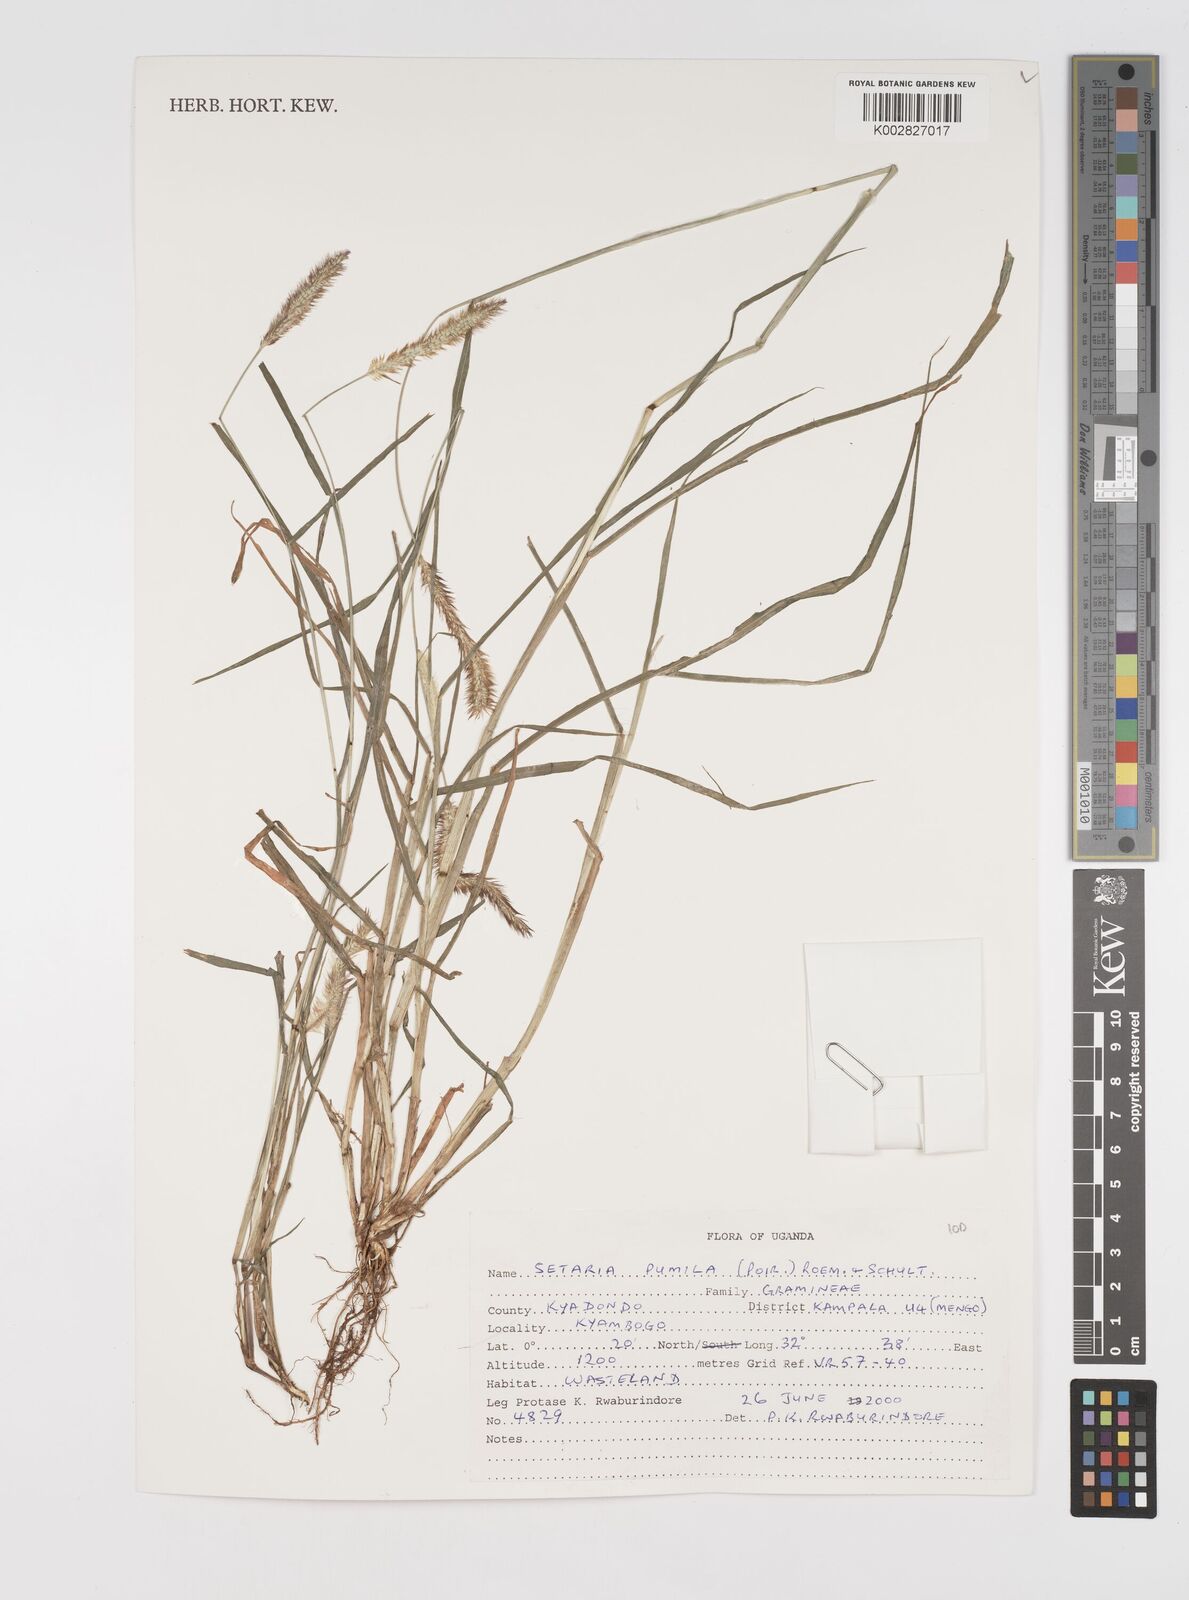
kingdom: Plantae
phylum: Tracheophyta
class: Liliopsida
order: Poales
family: Poaceae
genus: Setaria
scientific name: Setaria pumila
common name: Yellow bristle-grass
